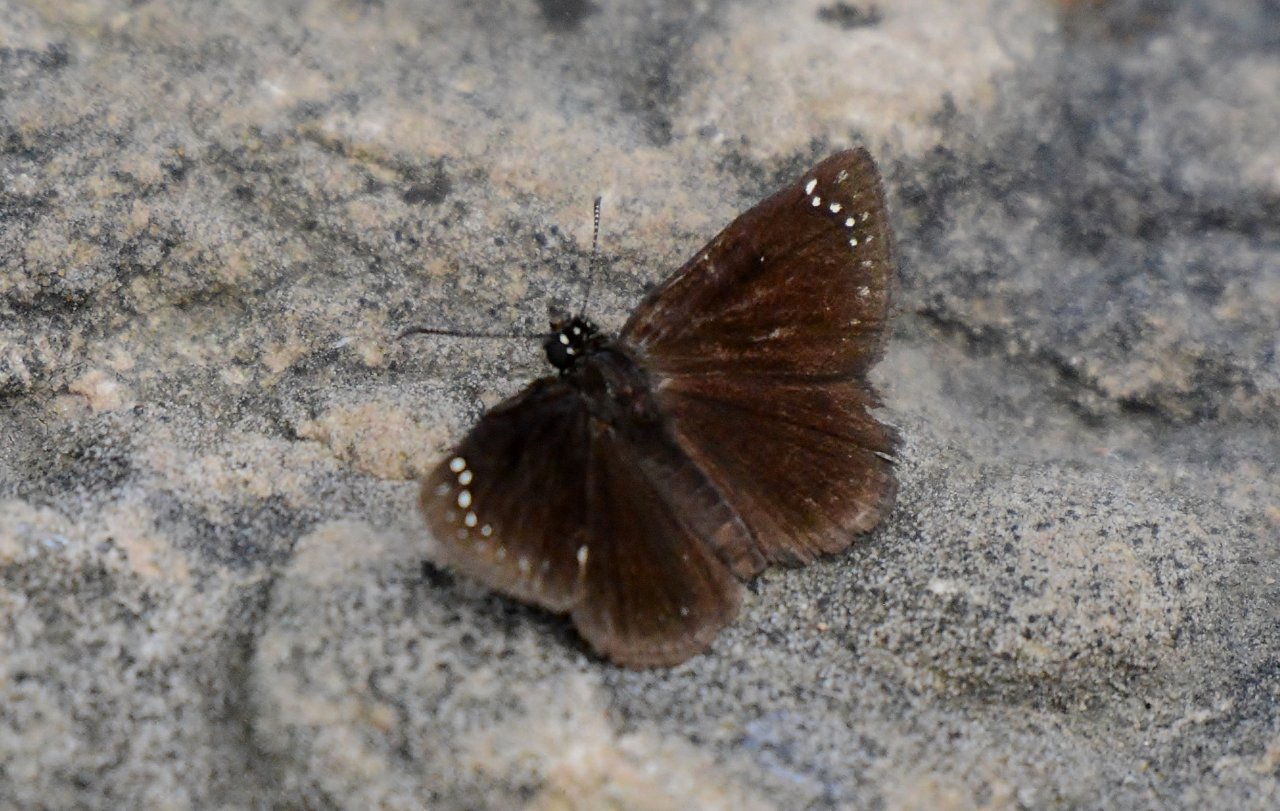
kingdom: Animalia
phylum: Arthropoda
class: Insecta
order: Lepidoptera
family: Hesperiidae
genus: Pholisora
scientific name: Pholisora catullus
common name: Common Sootywing
